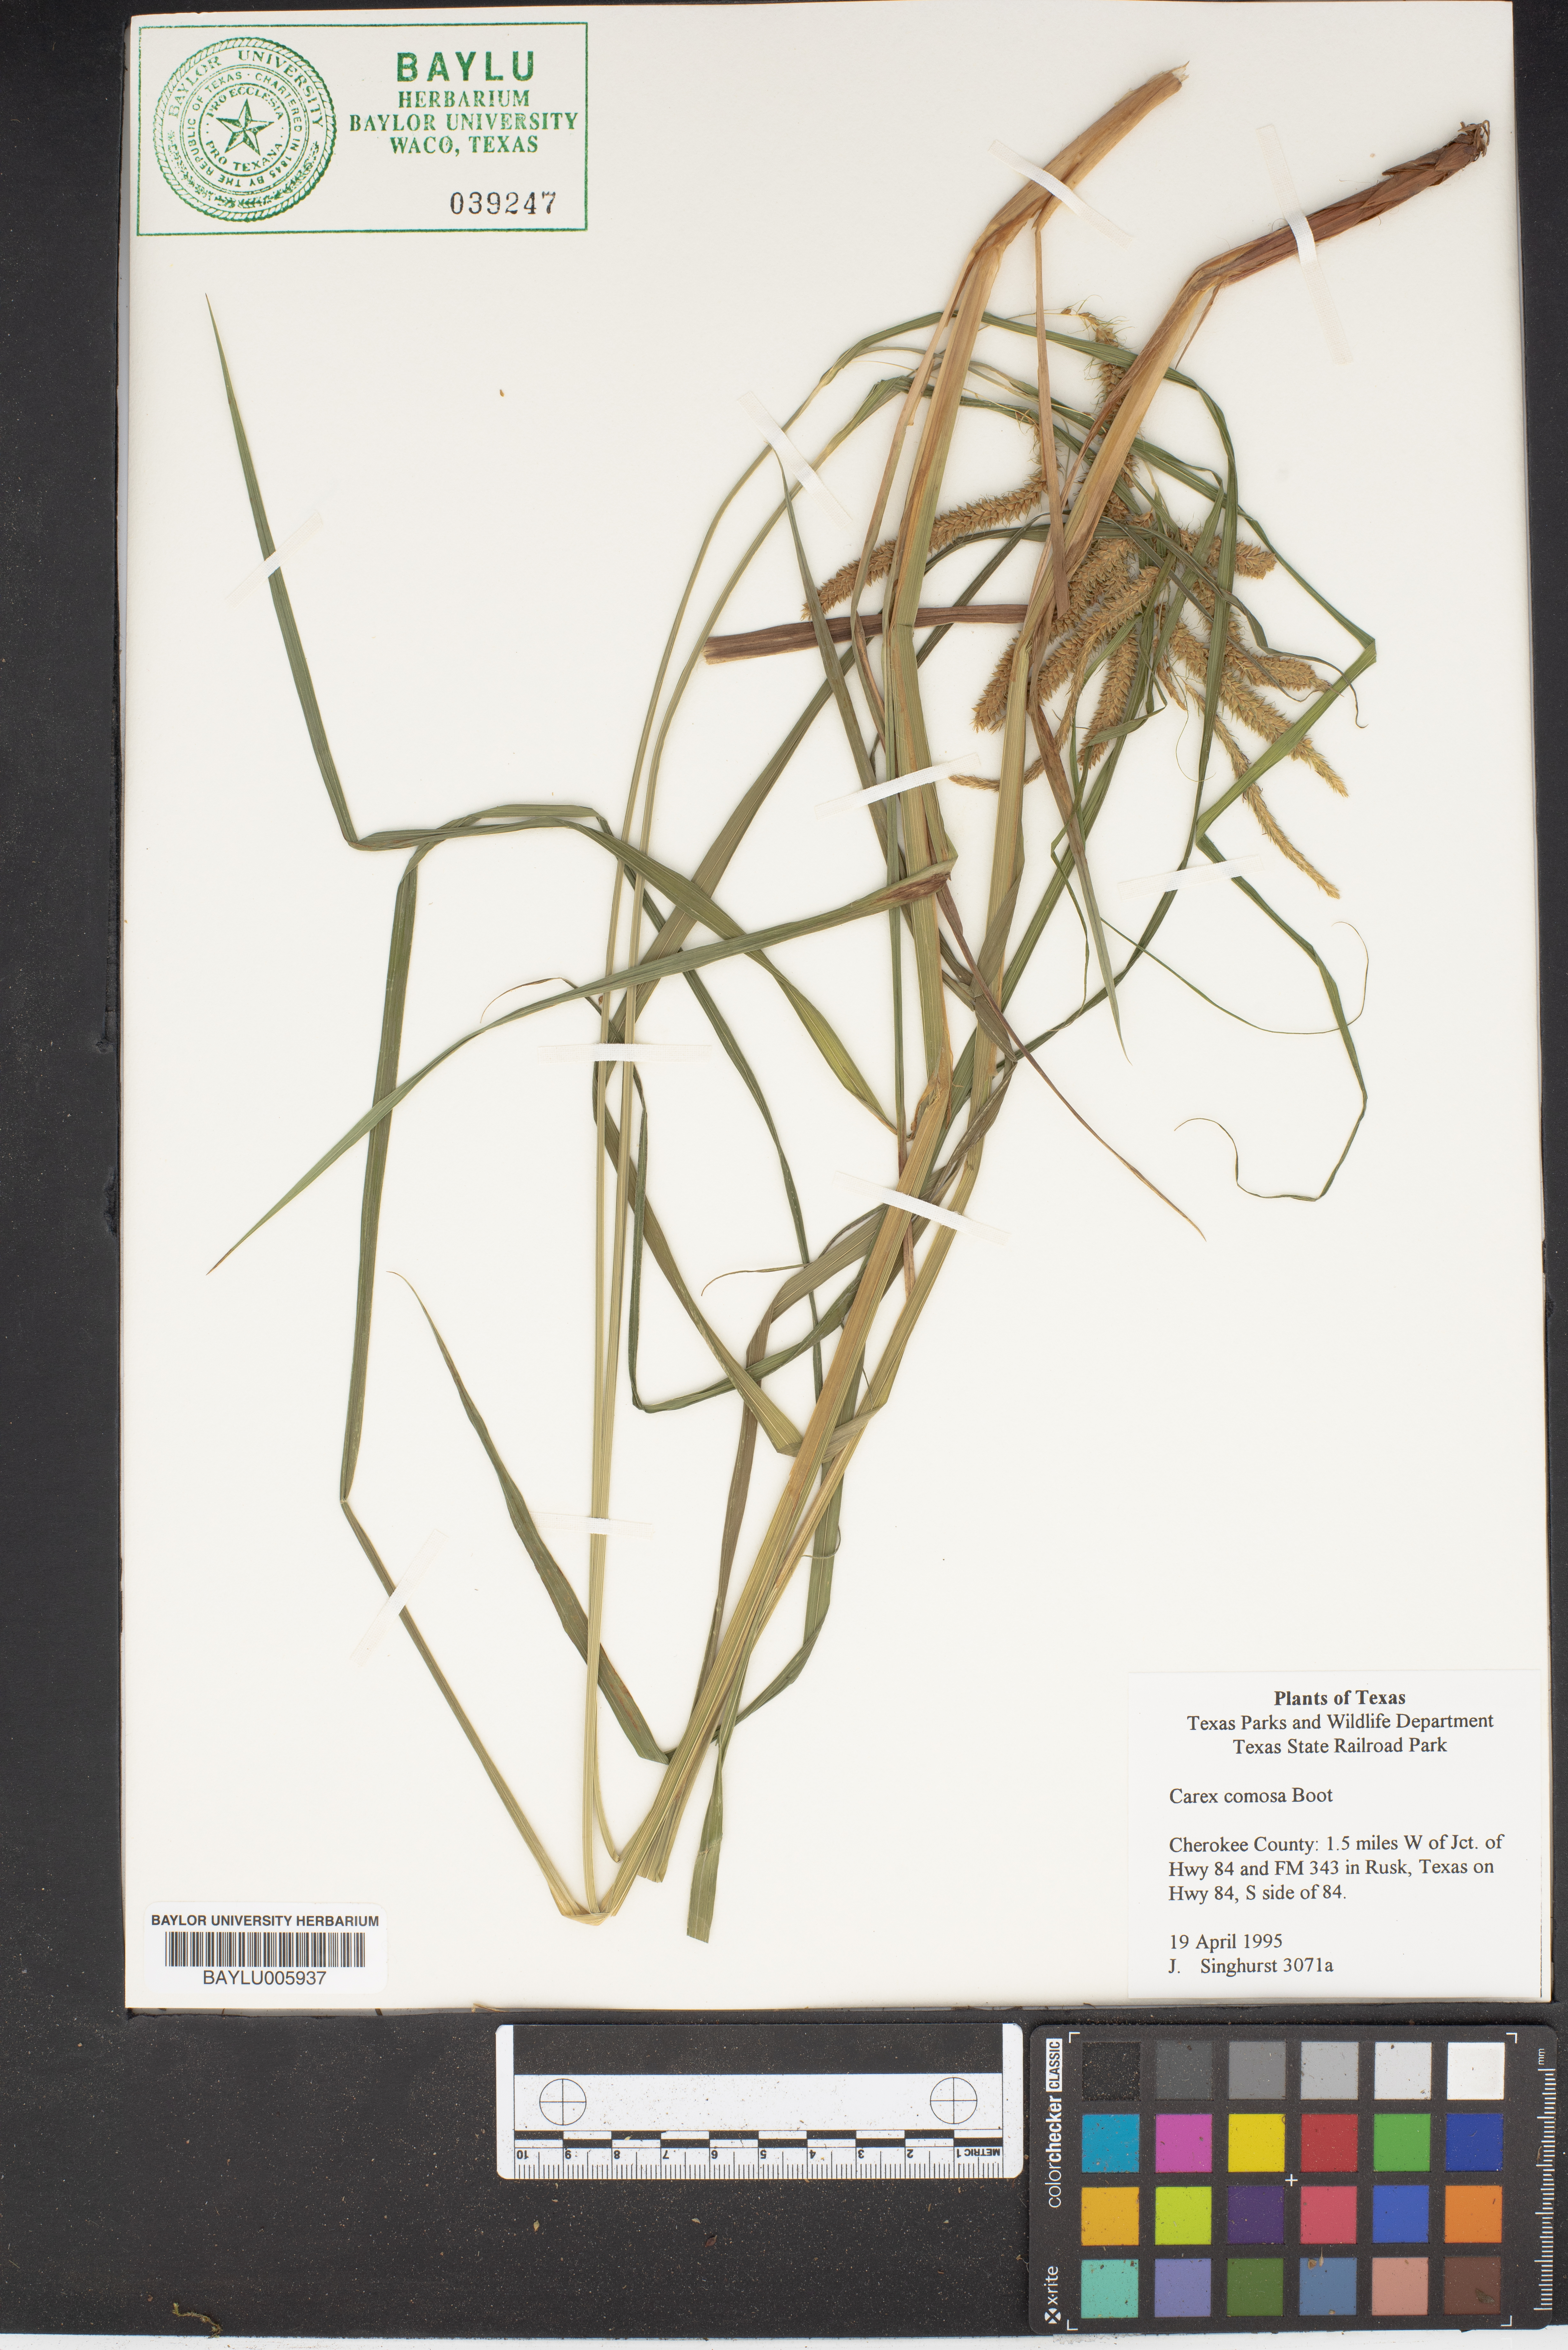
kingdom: Plantae
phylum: Tracheophyta
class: Liliopsida
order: Poales
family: Cyperaceae
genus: Carex
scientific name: Carex comosa
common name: Bristly sedge
